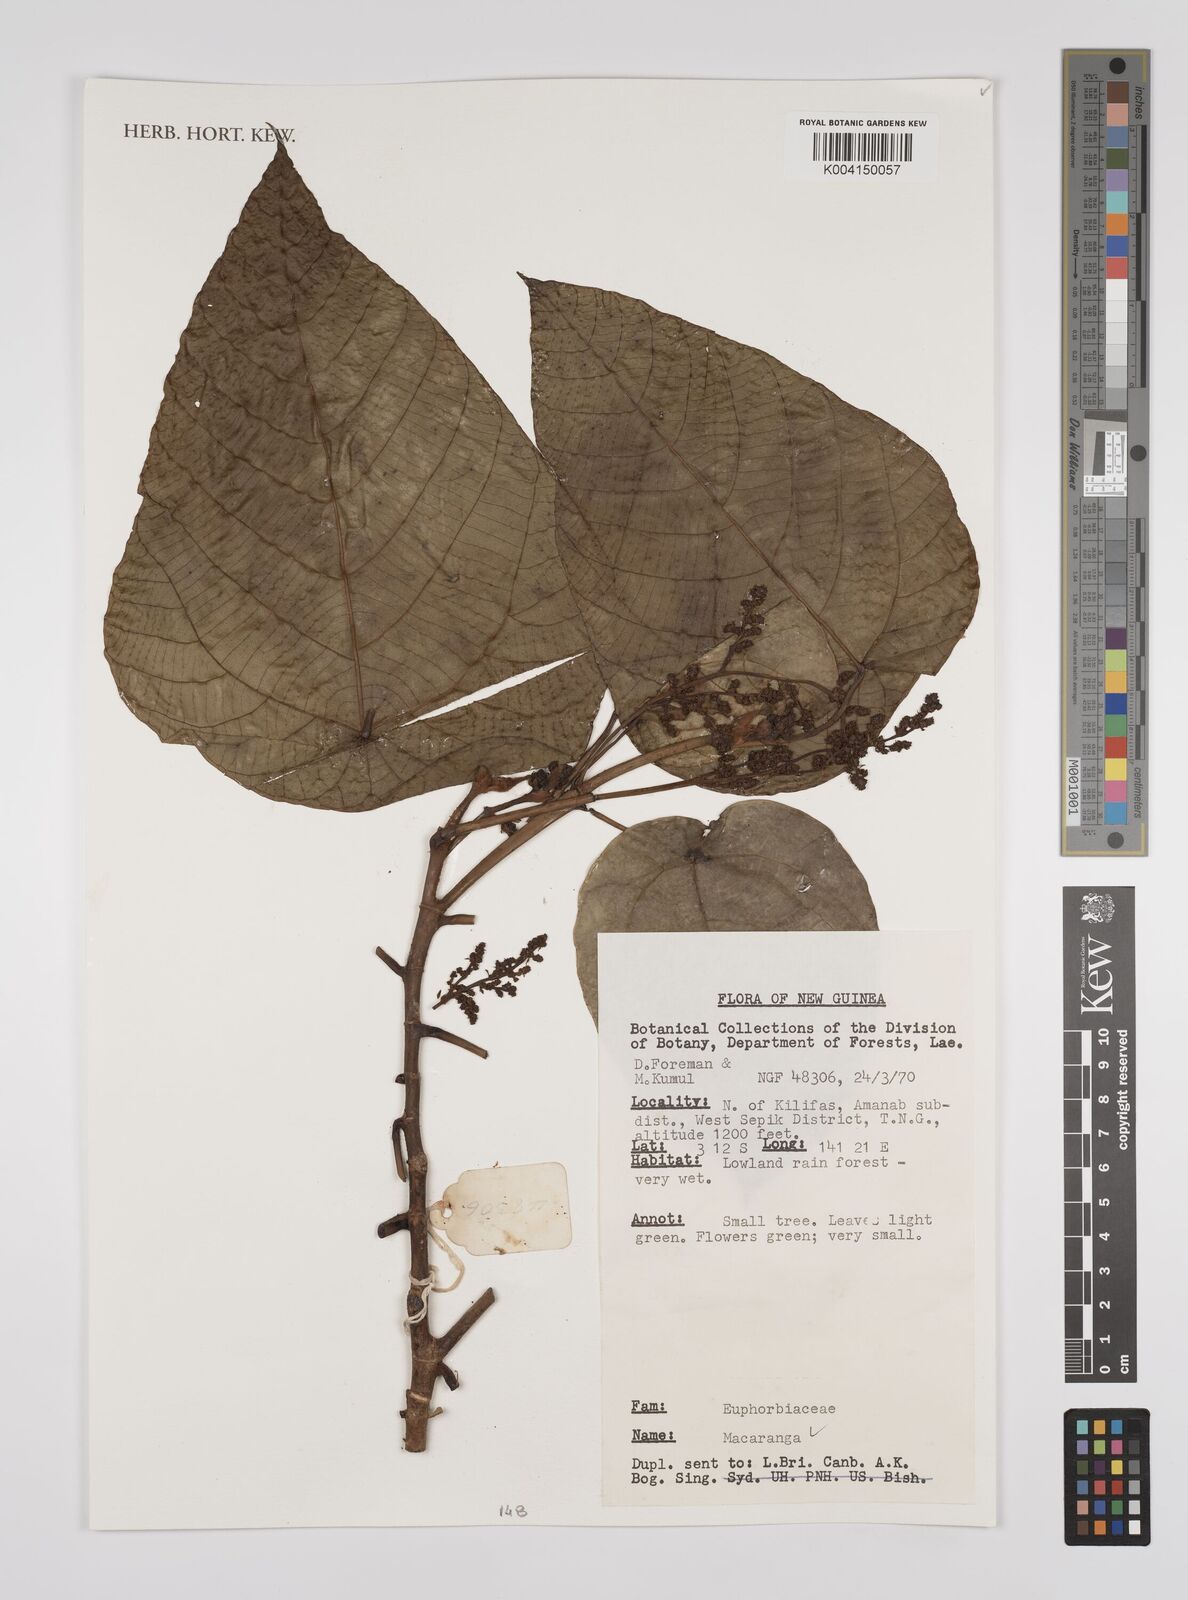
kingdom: Plantae
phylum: Tracheophyta
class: Magnoliopsida
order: Malpighiales
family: Euphorbiaceae
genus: Macaranga
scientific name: Macaranga
